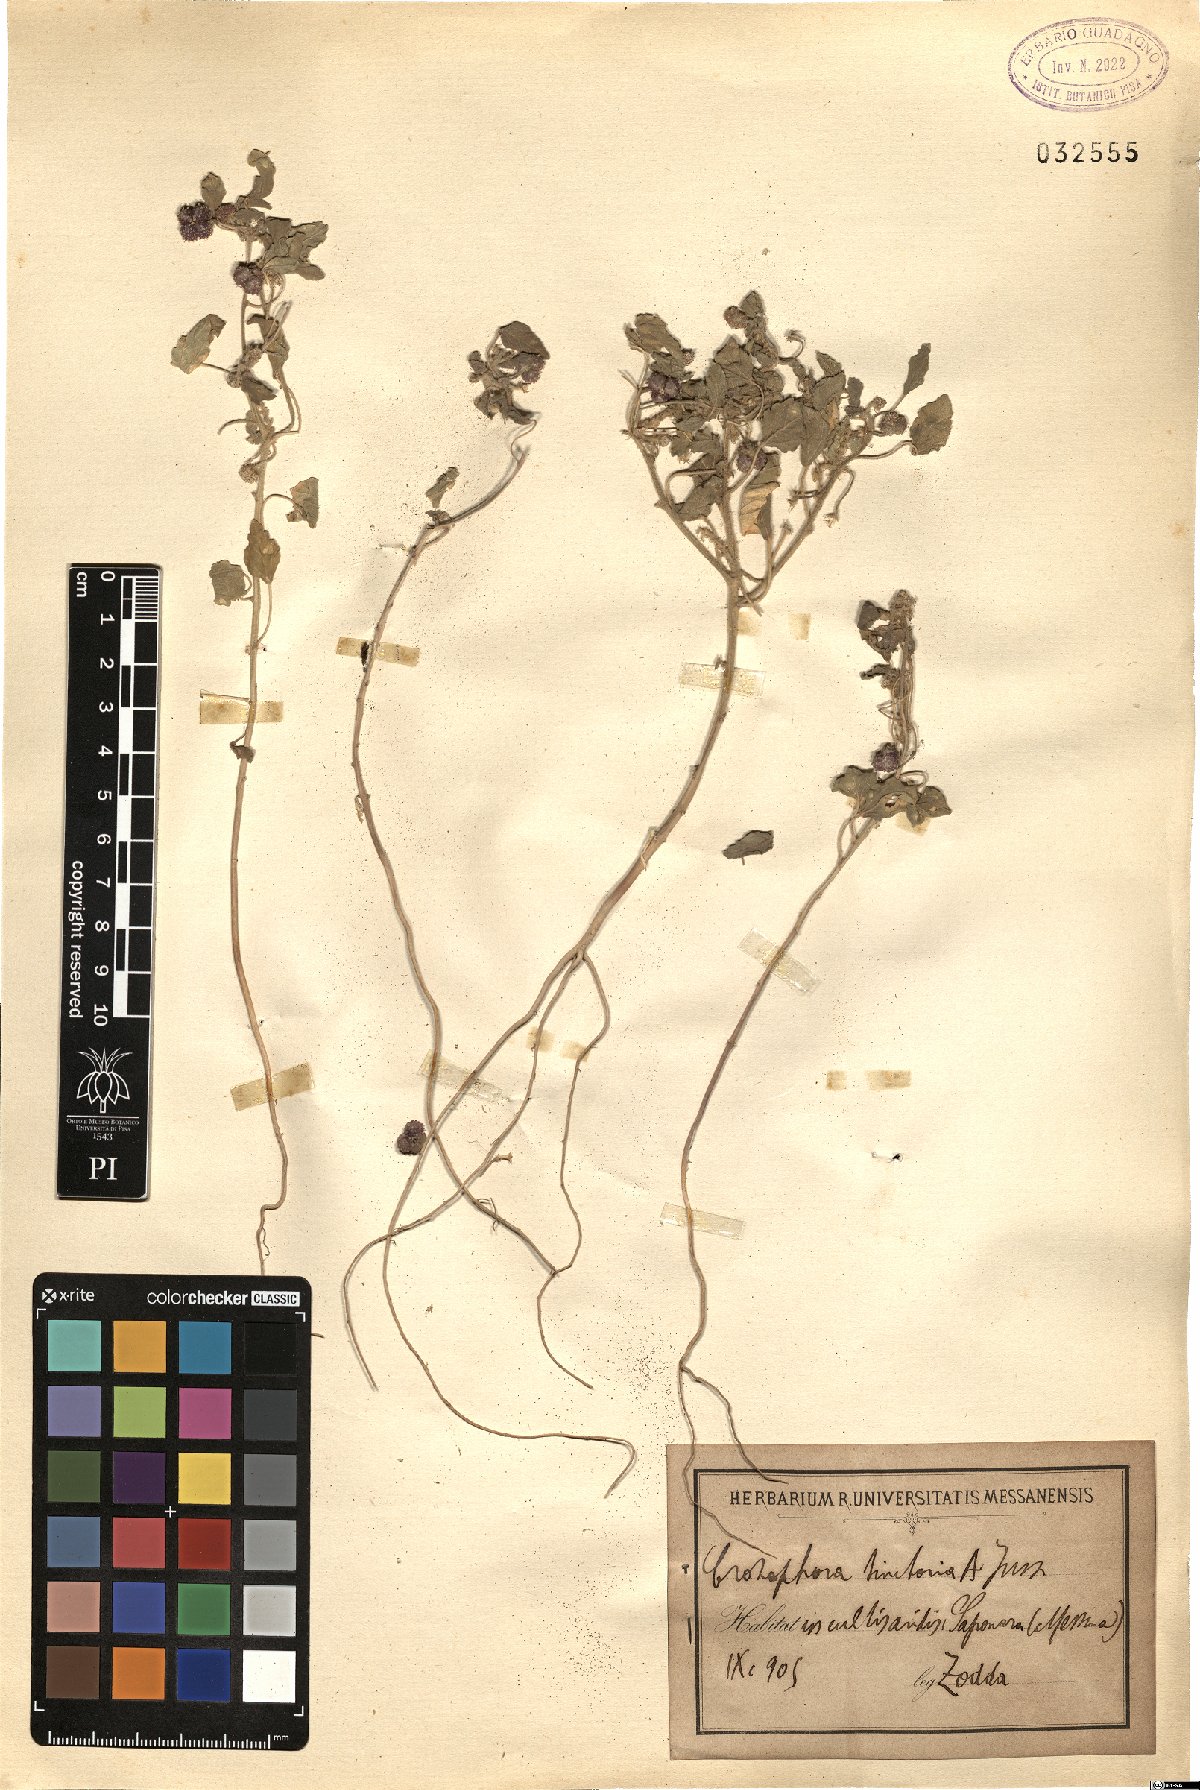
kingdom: Plantae
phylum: Tracheophyta
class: Magnoliopsida
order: Malpighiales
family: Euphorbiaceae
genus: Chrozophora
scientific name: Chrozophora tinctoria
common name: Dyer's litmus
